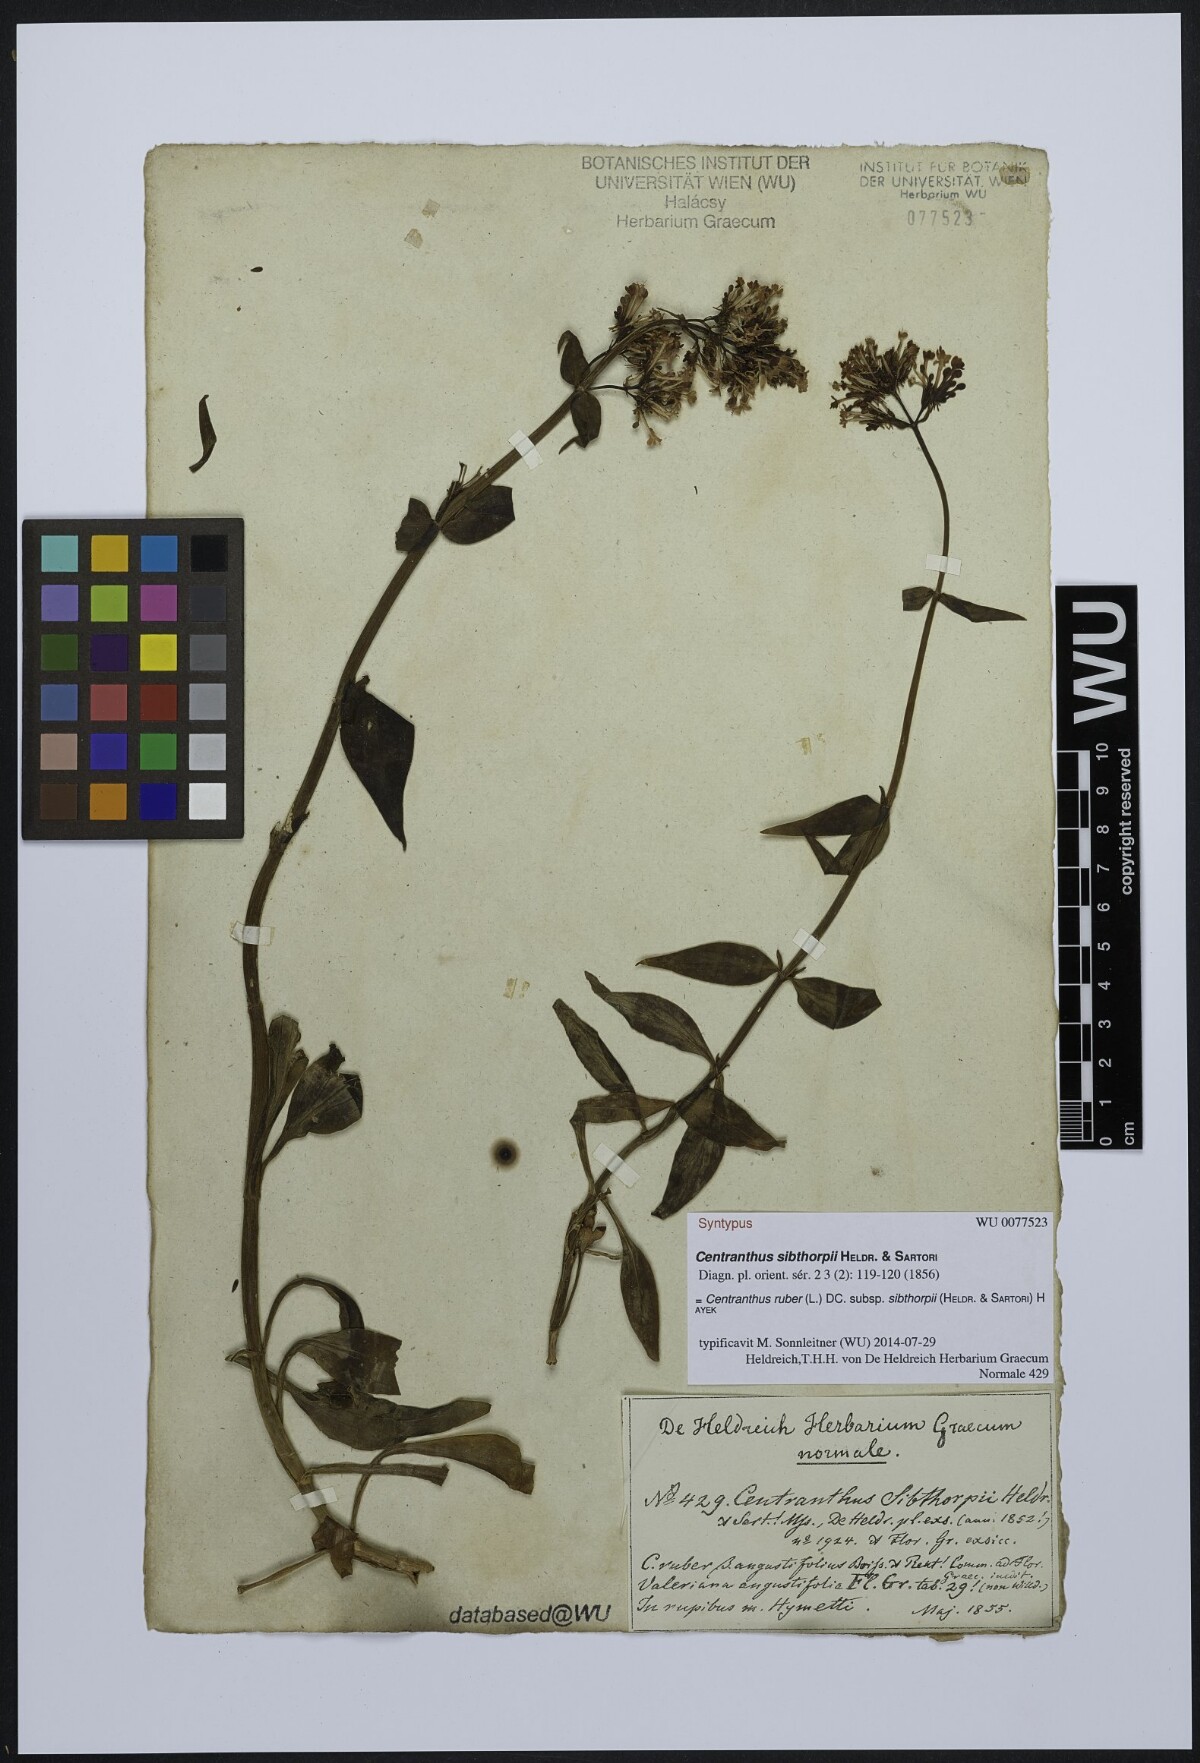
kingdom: Plantae
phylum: Tracheophyta
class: Magnoliopsida
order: Dipsacales
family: Caprifoliaceae
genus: Centranthus
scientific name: Centranthus ruber
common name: Red valerian
